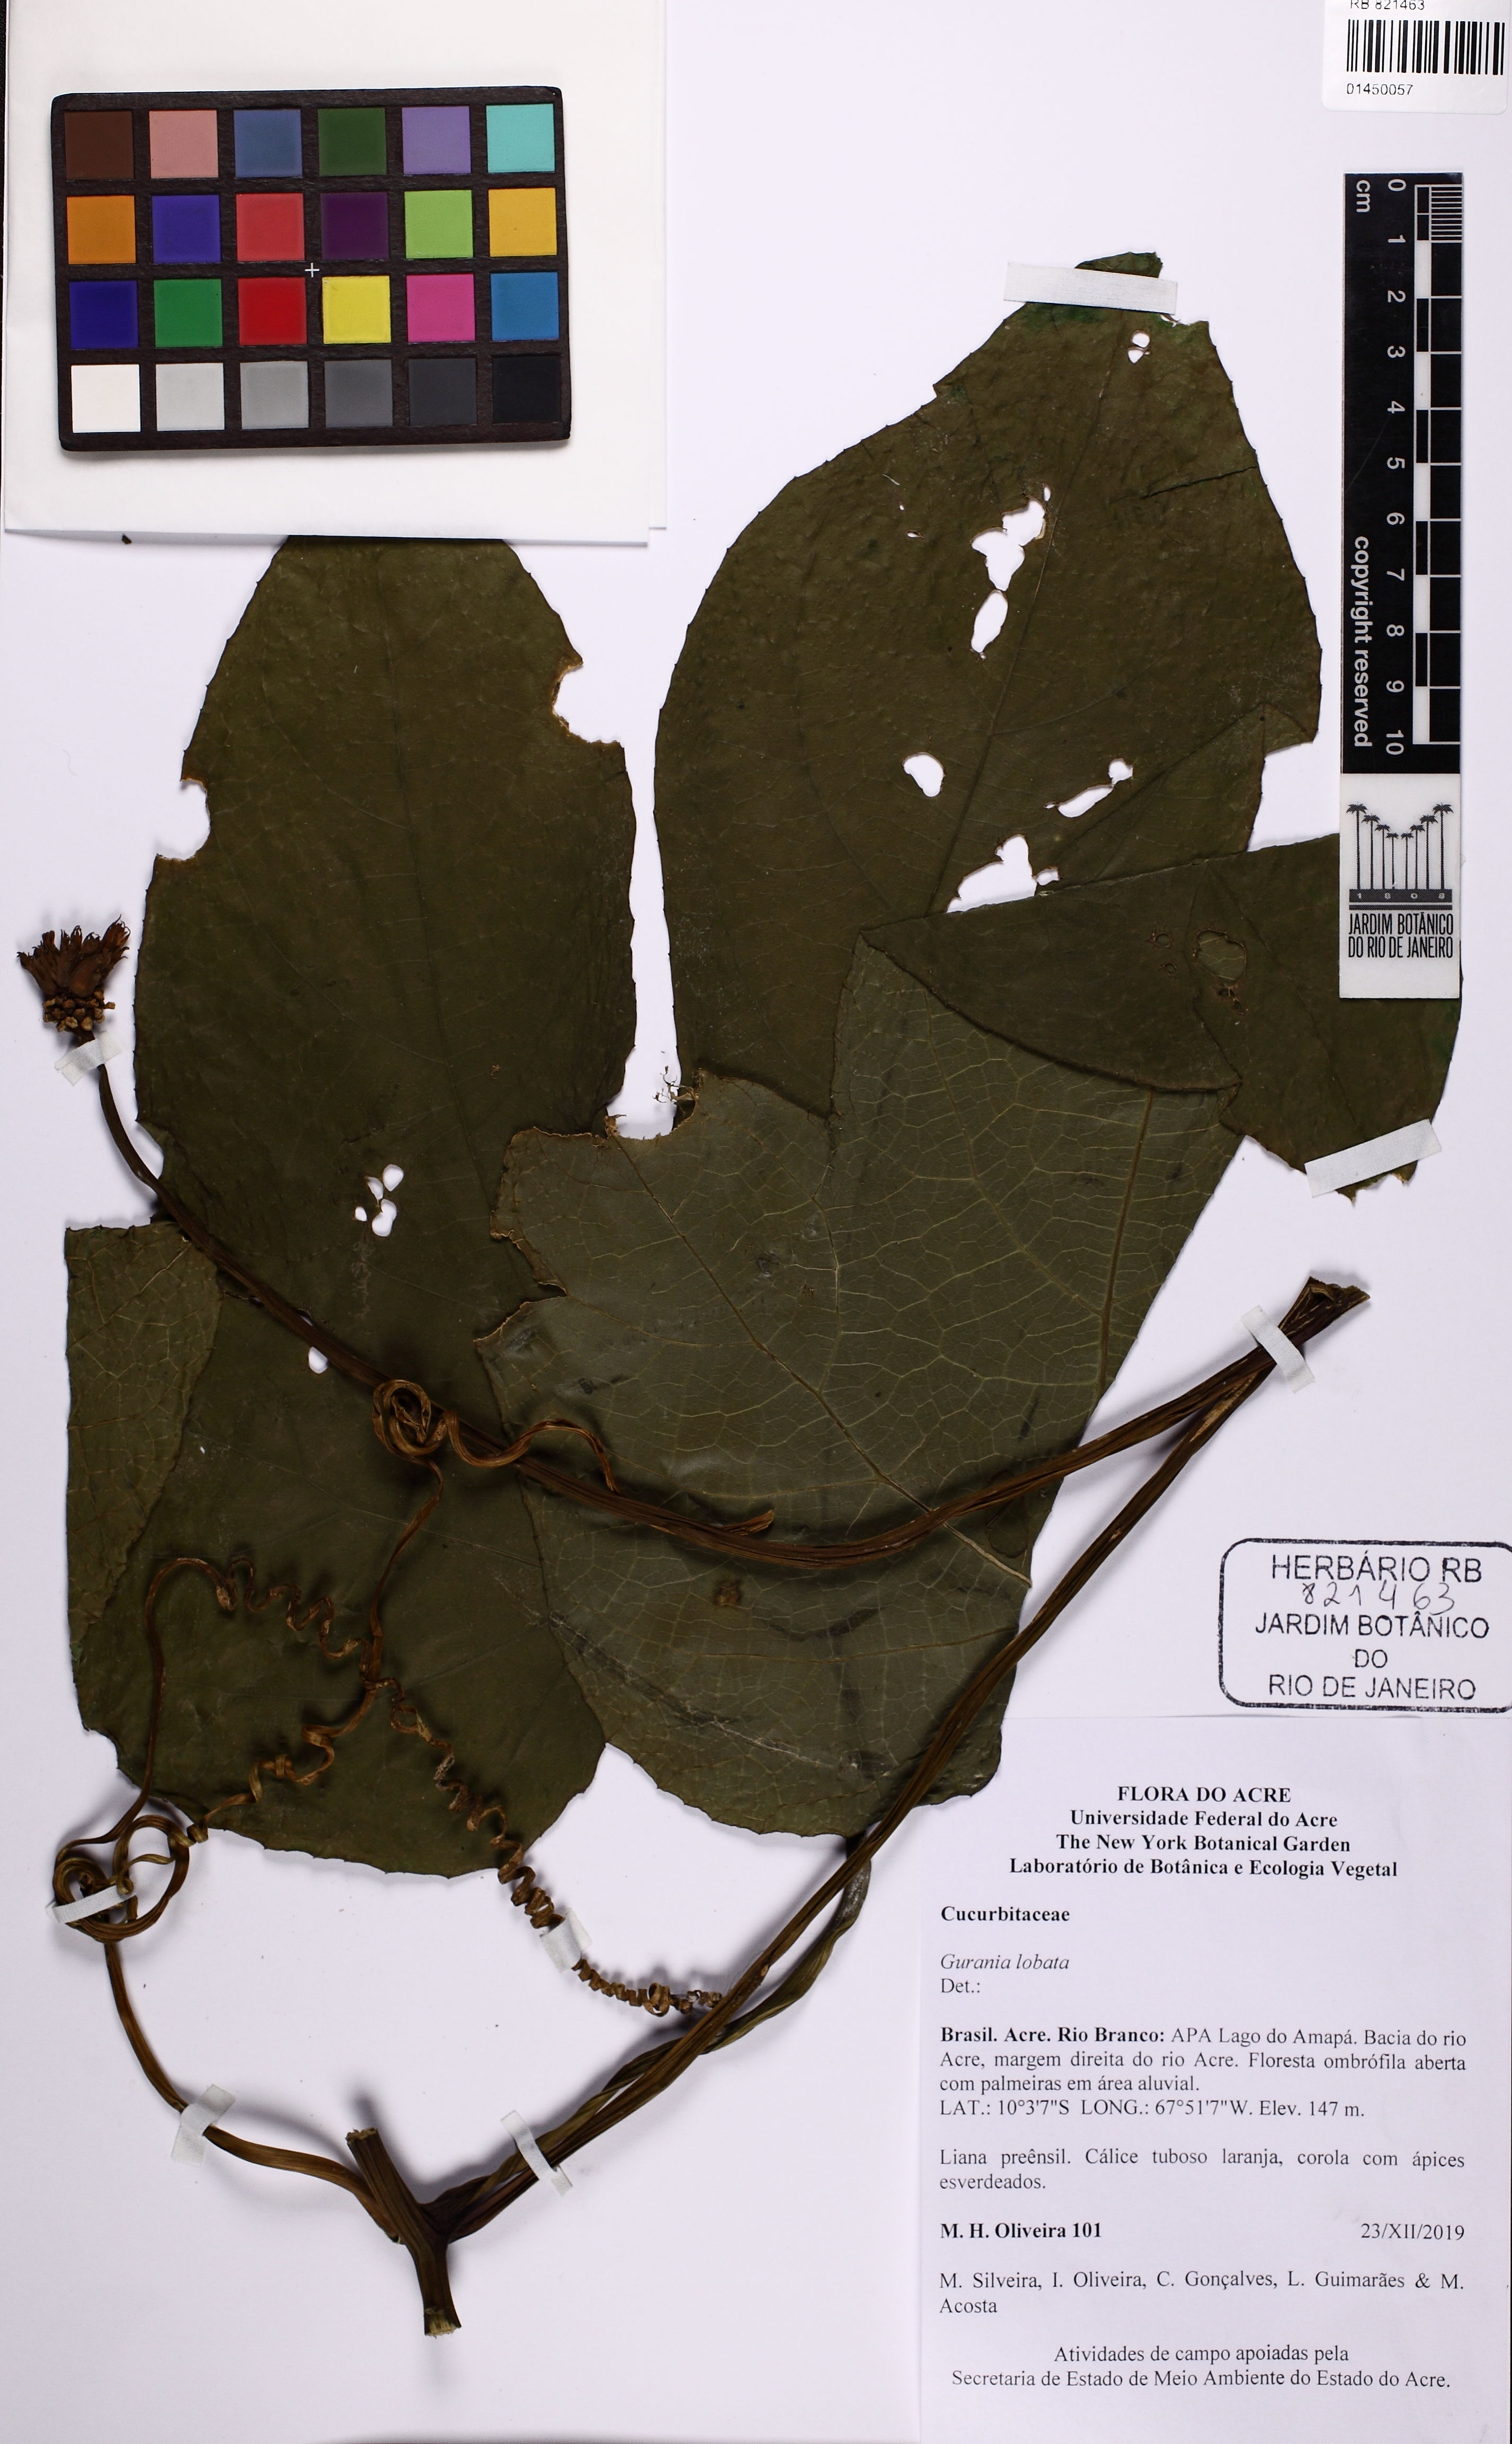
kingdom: Plantae
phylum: Tracheophyta
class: Magnoliopsida
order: Cucurbitales
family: Cucurbitaceae
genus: Gurania
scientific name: Gurania lobata
